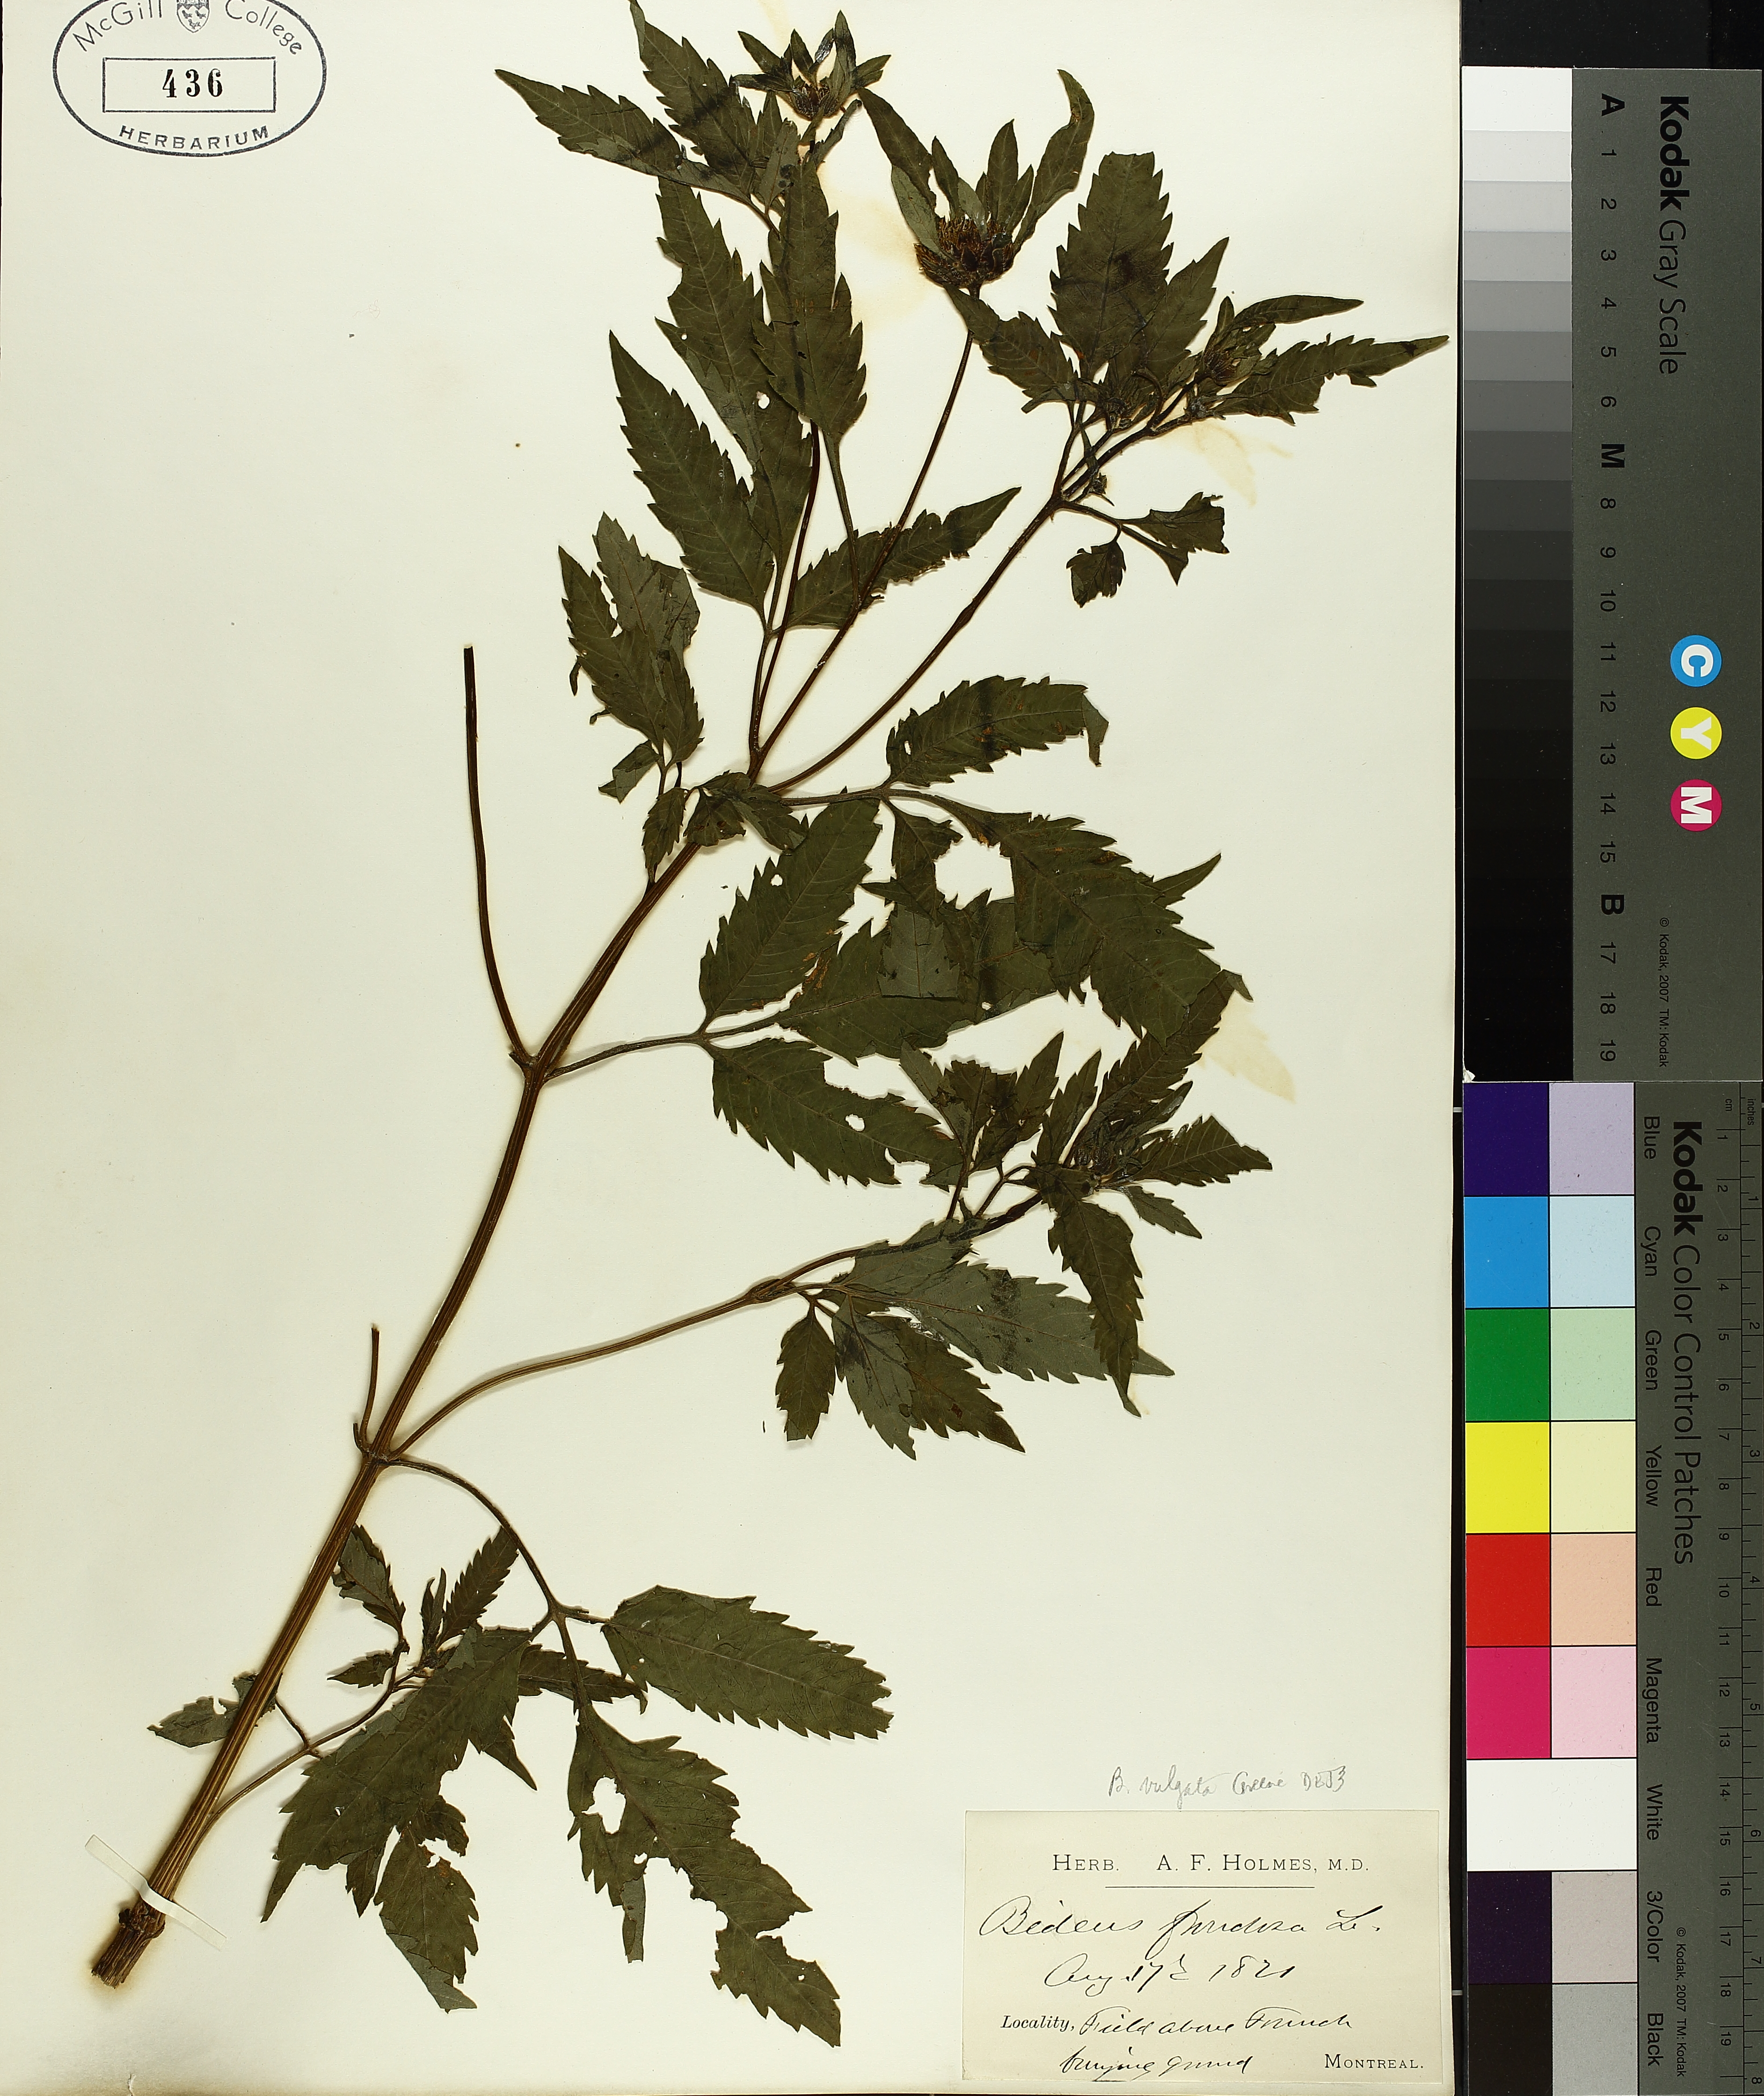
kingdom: Plantae
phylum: Tracheophyta
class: Magnoliopsida
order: Asterales
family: Asteraceae
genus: Bidens
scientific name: Bidens vulgata
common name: Tall beggarticks
